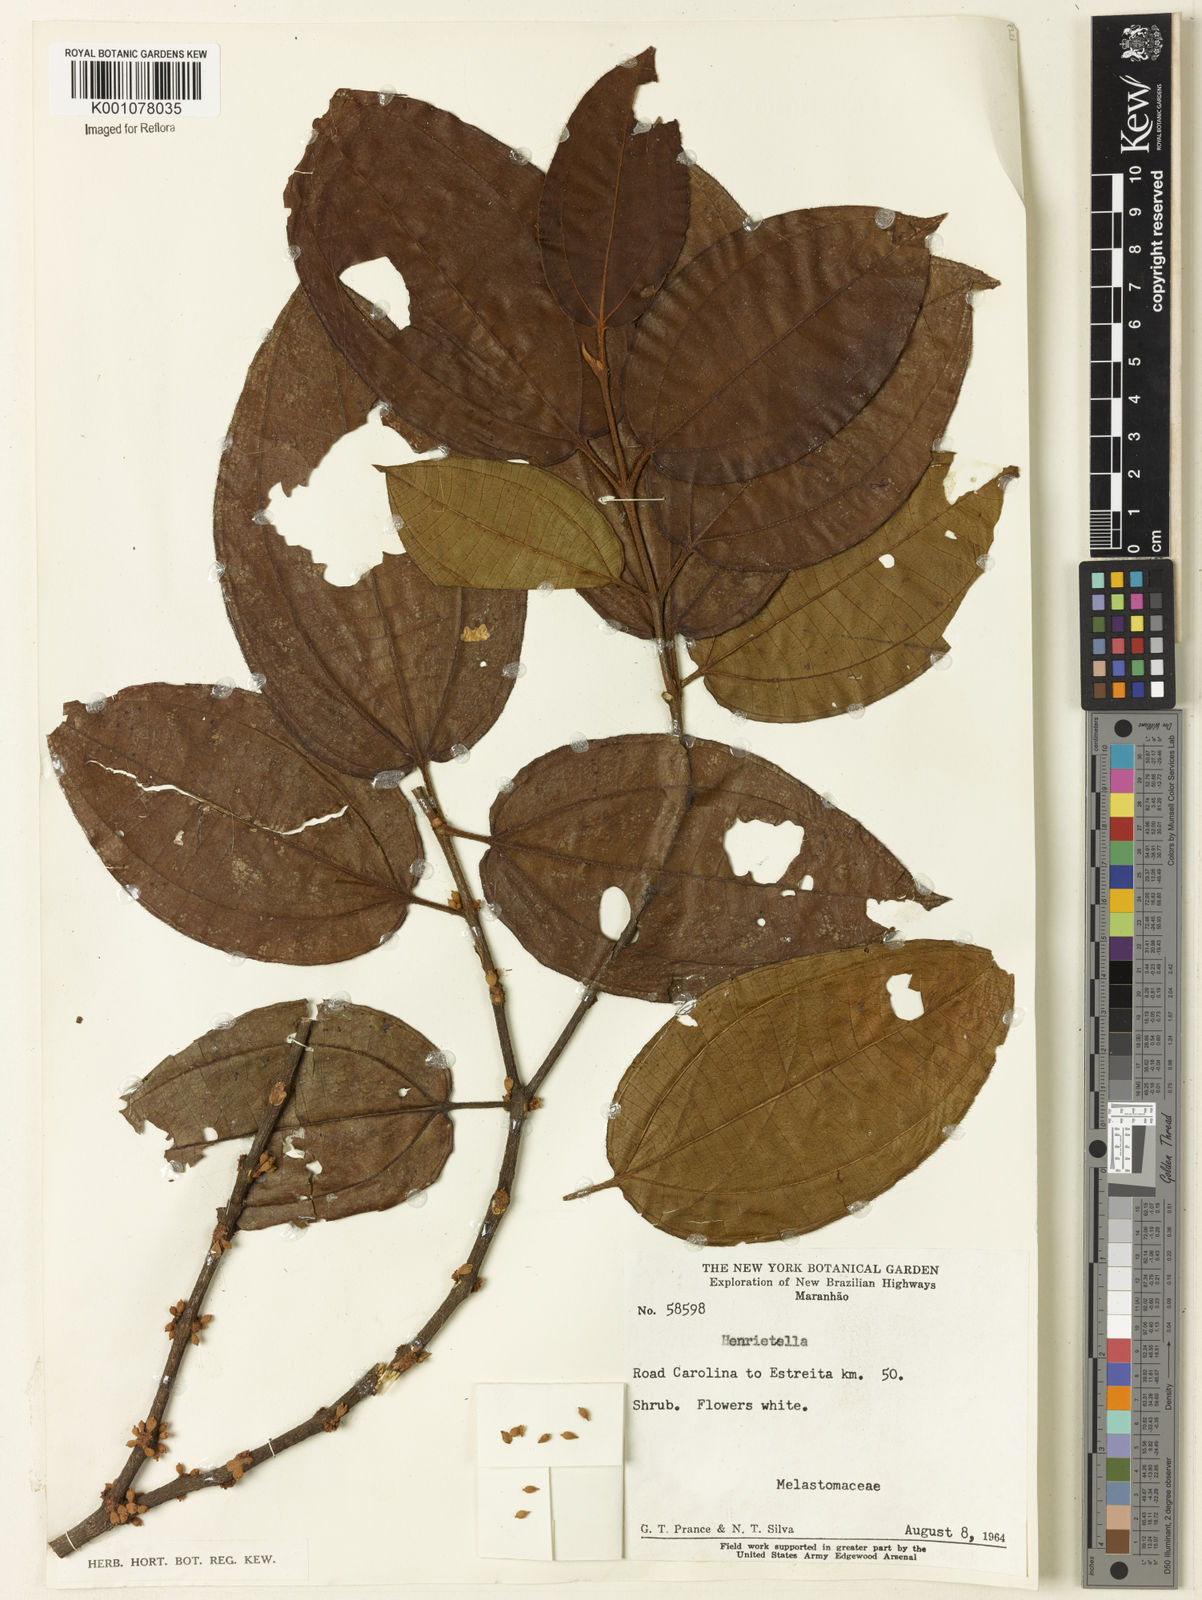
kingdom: Plantae
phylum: Tracheophyta
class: Magnoliopsida
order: Myrtales
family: Melastomataceae
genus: Henriettea
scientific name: Henriettea
